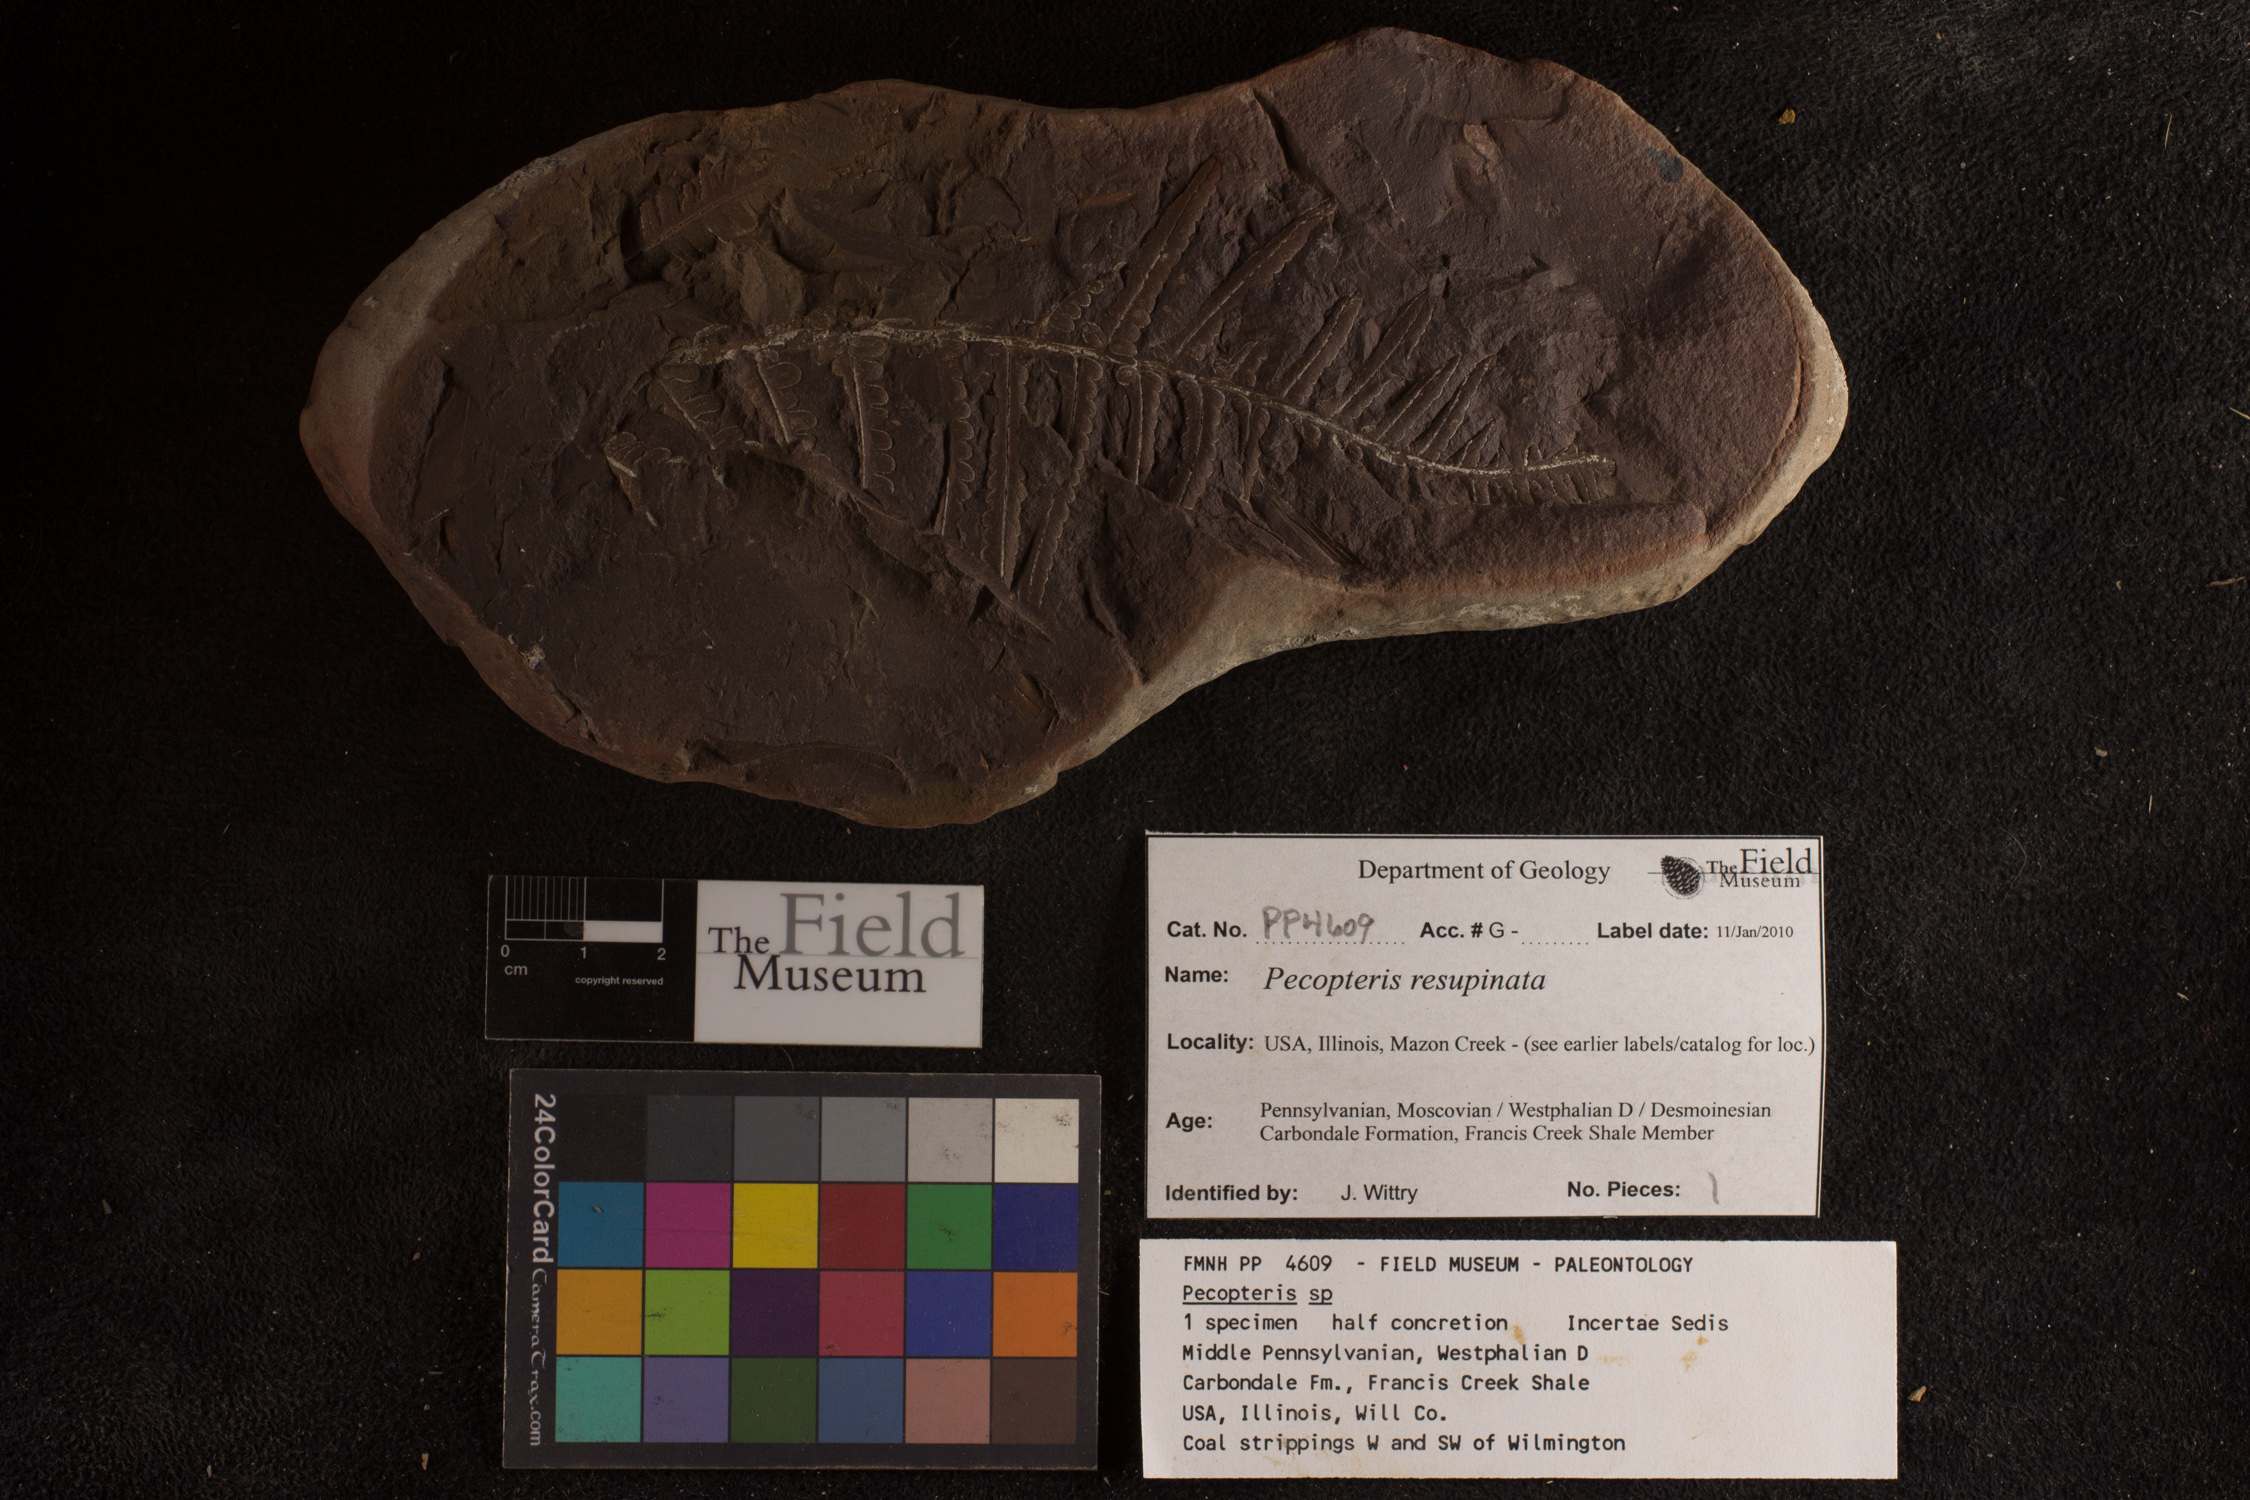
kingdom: Plantae
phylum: Tracheophyta
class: Polypodiopsida
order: Marattiales
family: Asterothecaceae
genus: Pecopteris
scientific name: Pecopteris
